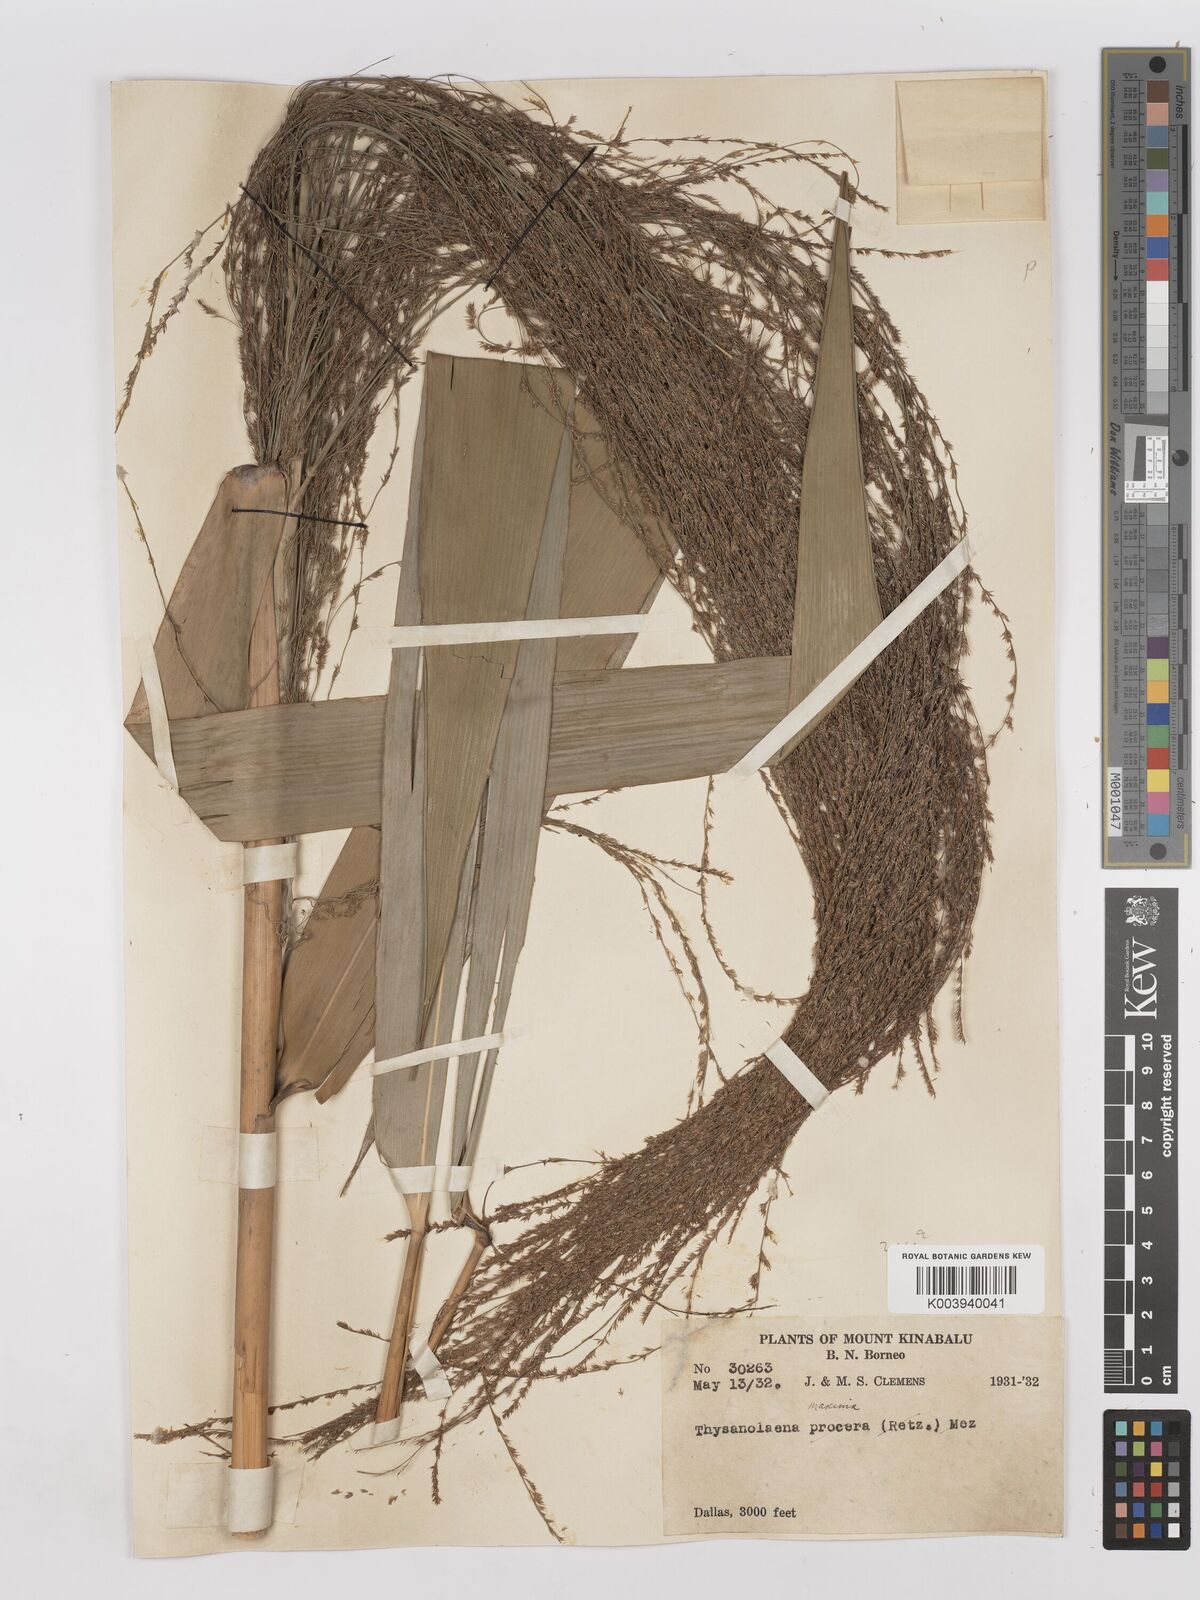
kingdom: Plantae
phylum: Tracheophyta
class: Liliopsida
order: Poales
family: Poaceae
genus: Thysanolaena
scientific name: Thysanolaena latifolia
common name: Tiger grass
